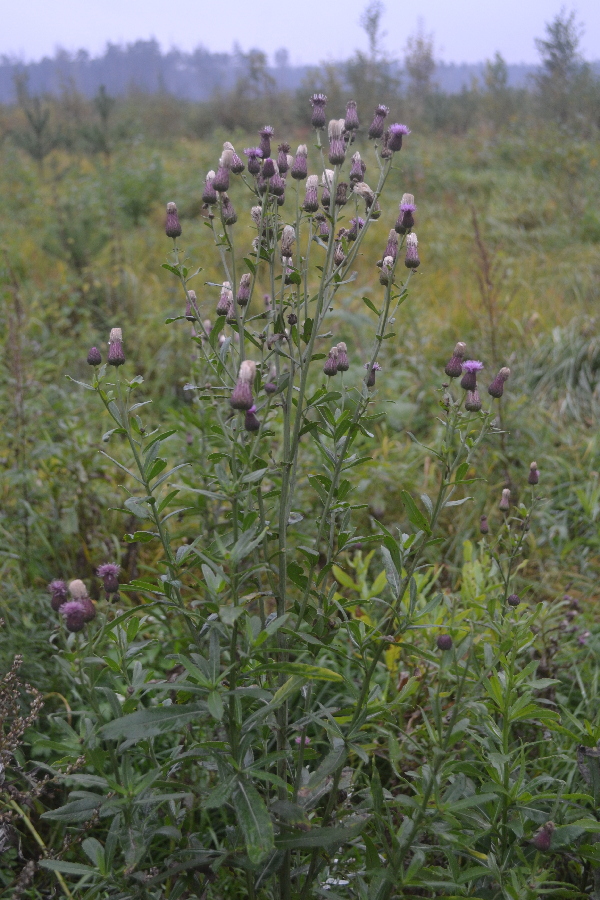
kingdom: Plantae
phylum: Tracheophyta
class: Magnoliopsida
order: Asterales
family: Asteraceae
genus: Cirsium
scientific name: Cirsium arvense
